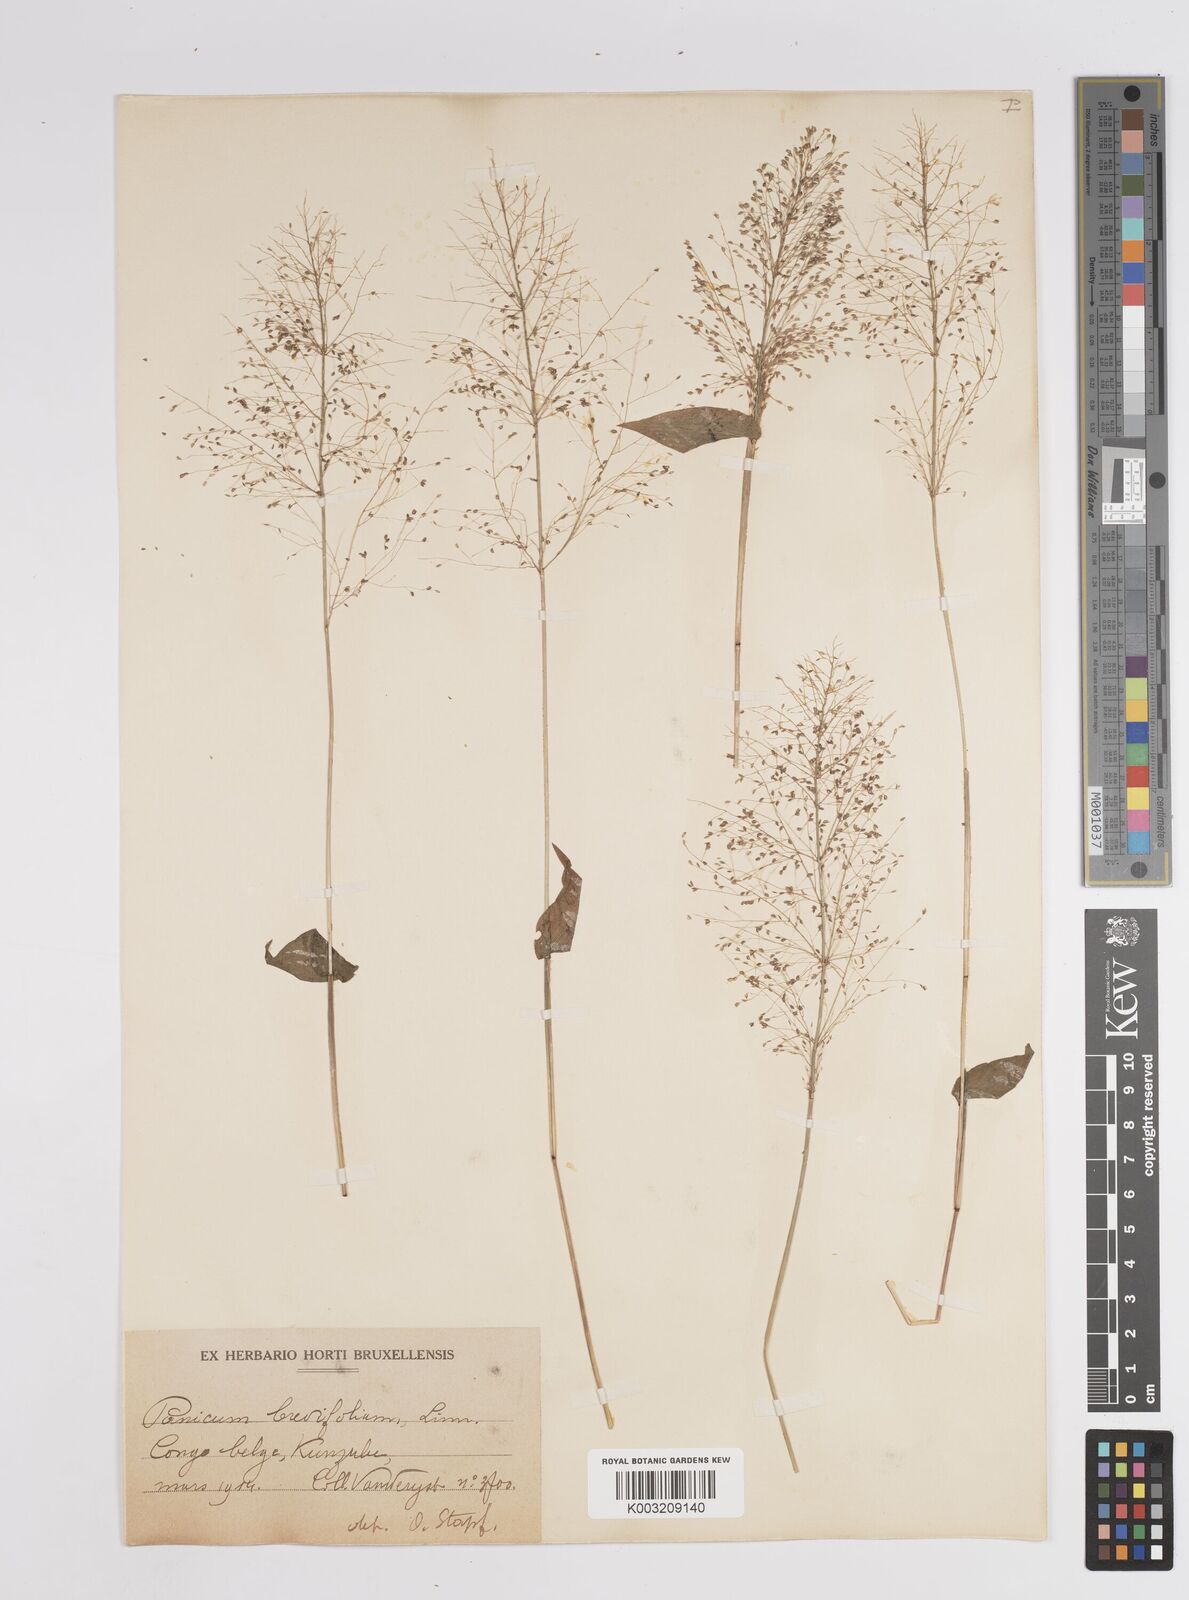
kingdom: Plantae
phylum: Tracheophyta
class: Liliopsida
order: Poales
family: Poaceae
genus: Panicum
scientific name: Panicum brevifolium
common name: Shortleaf panic grass
